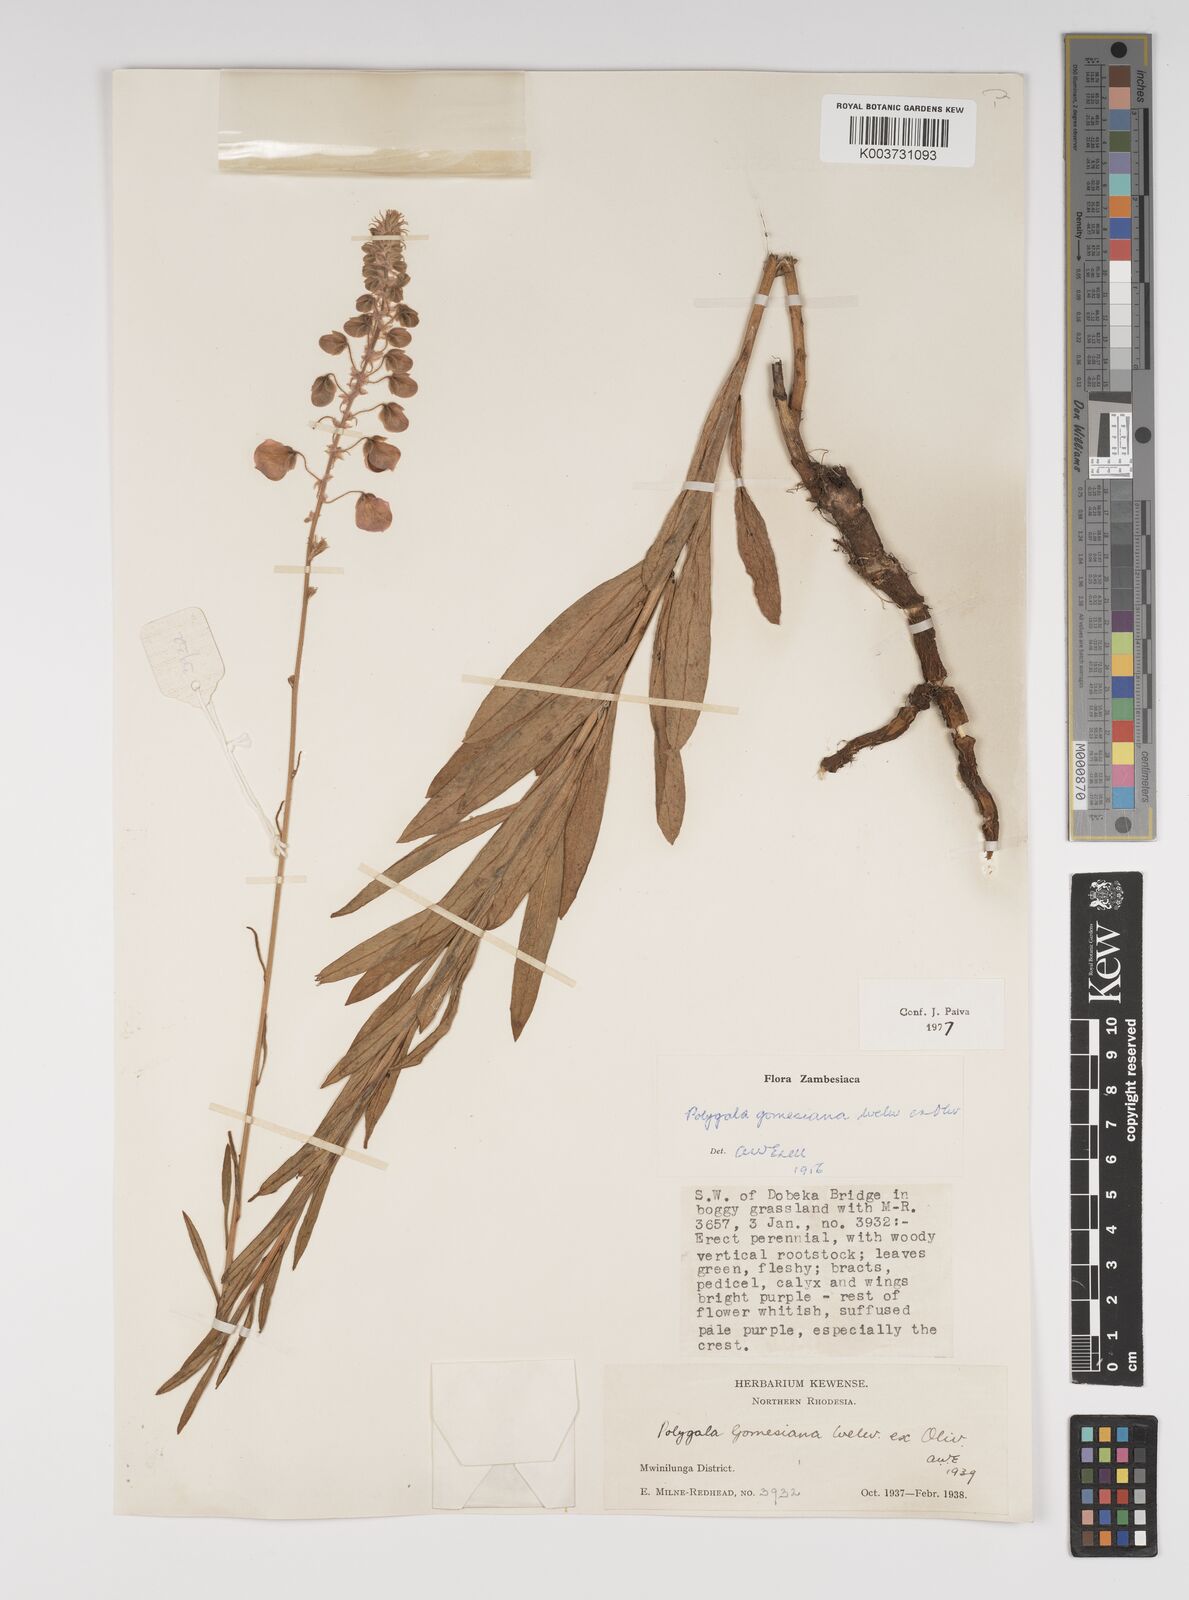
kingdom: Plantae
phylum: Tracheophyta
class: Magnoliopsida
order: Fabales
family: Polygalaceae
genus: Polygala
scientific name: Polygala gomesiana
